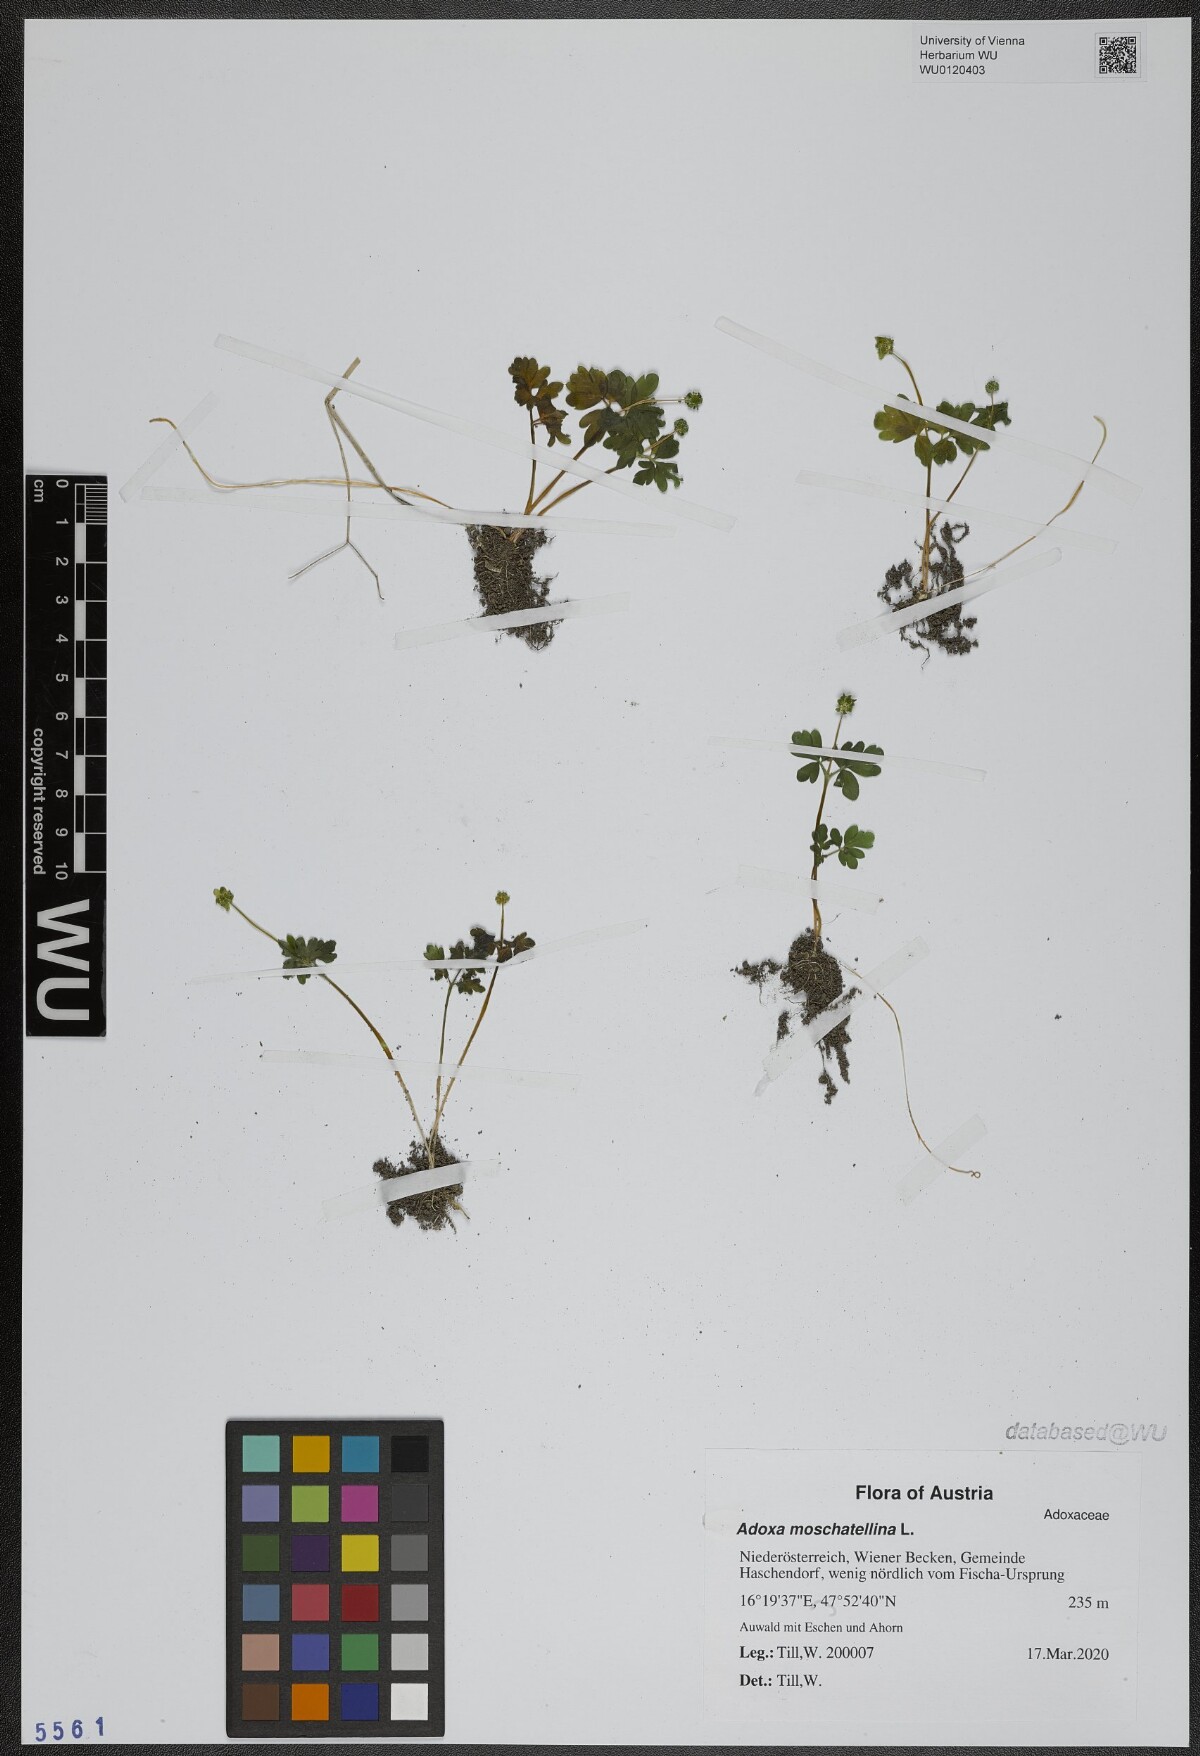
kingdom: Plantae
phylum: Tracheophyta
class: Magnoliopsida
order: Dipsacales
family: Viburnaceae
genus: Adoxa
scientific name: Adoxa moschatellina
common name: Moschatel
